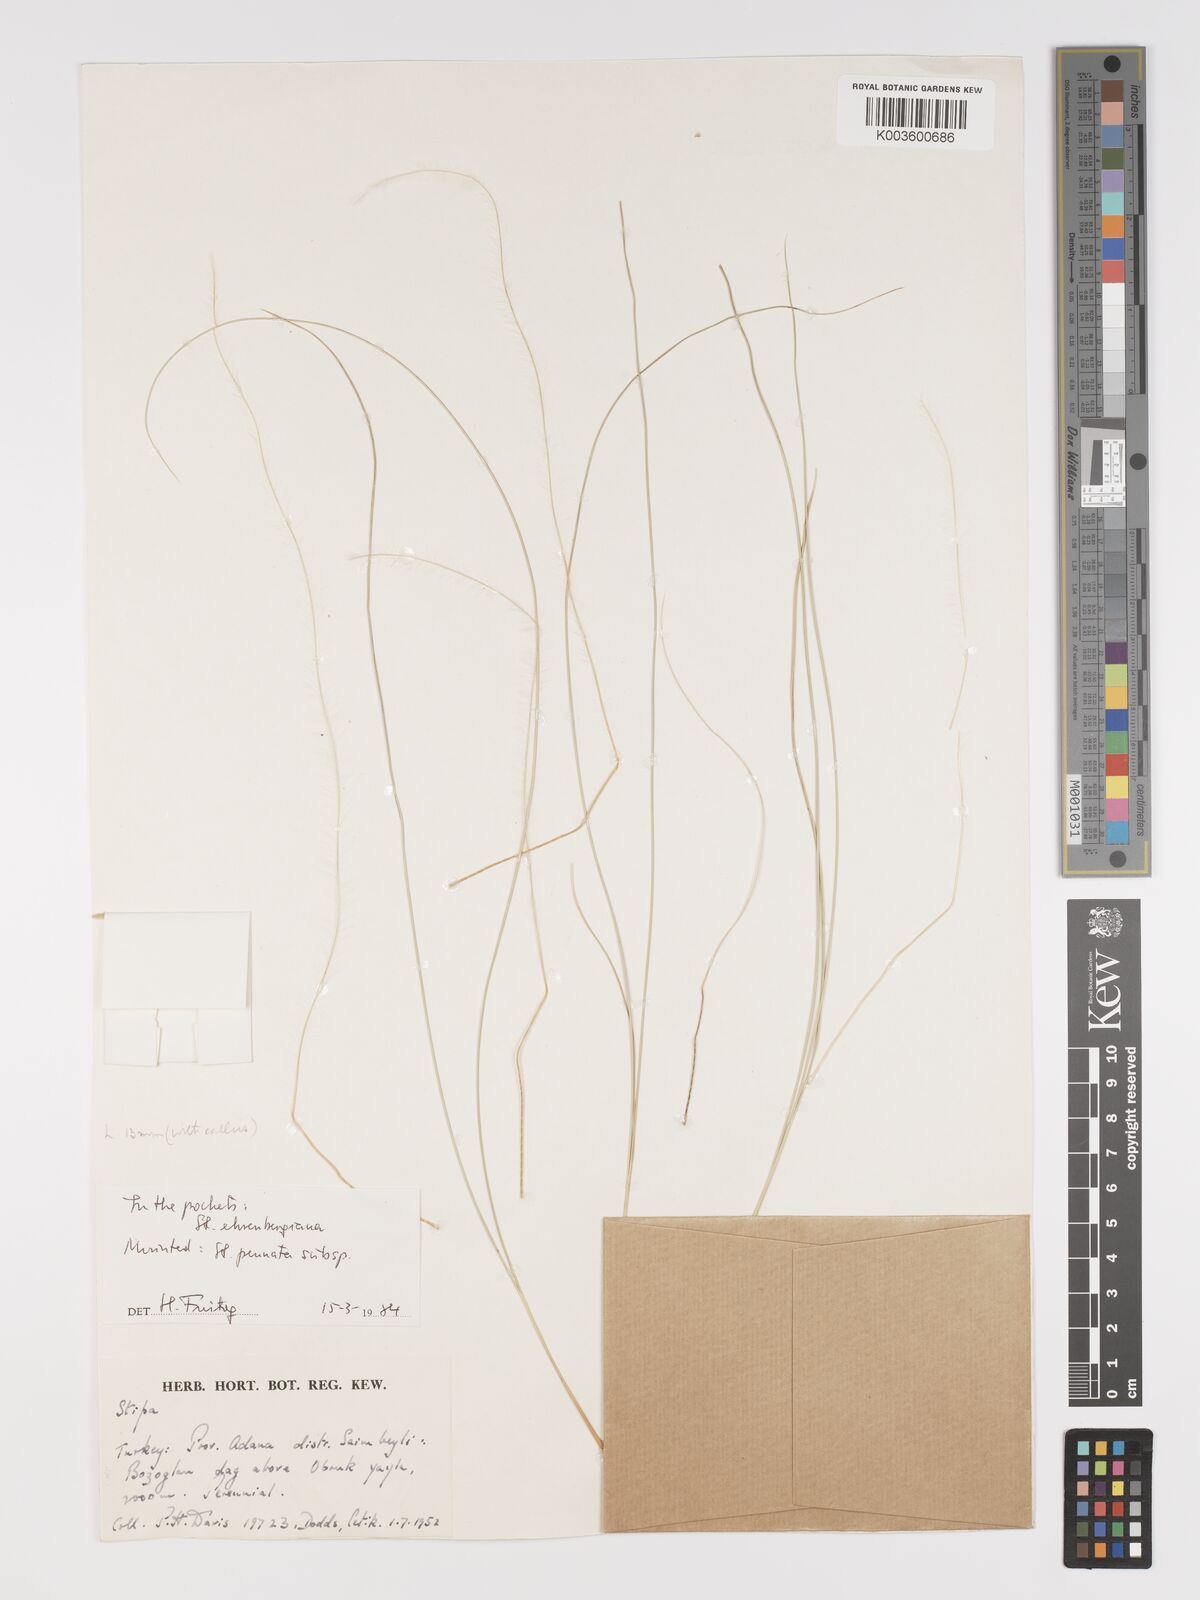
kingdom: Plantae
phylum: Tracheophyta
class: Liliopsida
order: Poales
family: Poaceae
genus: Stipa
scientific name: Stipa ehrenbergiana
